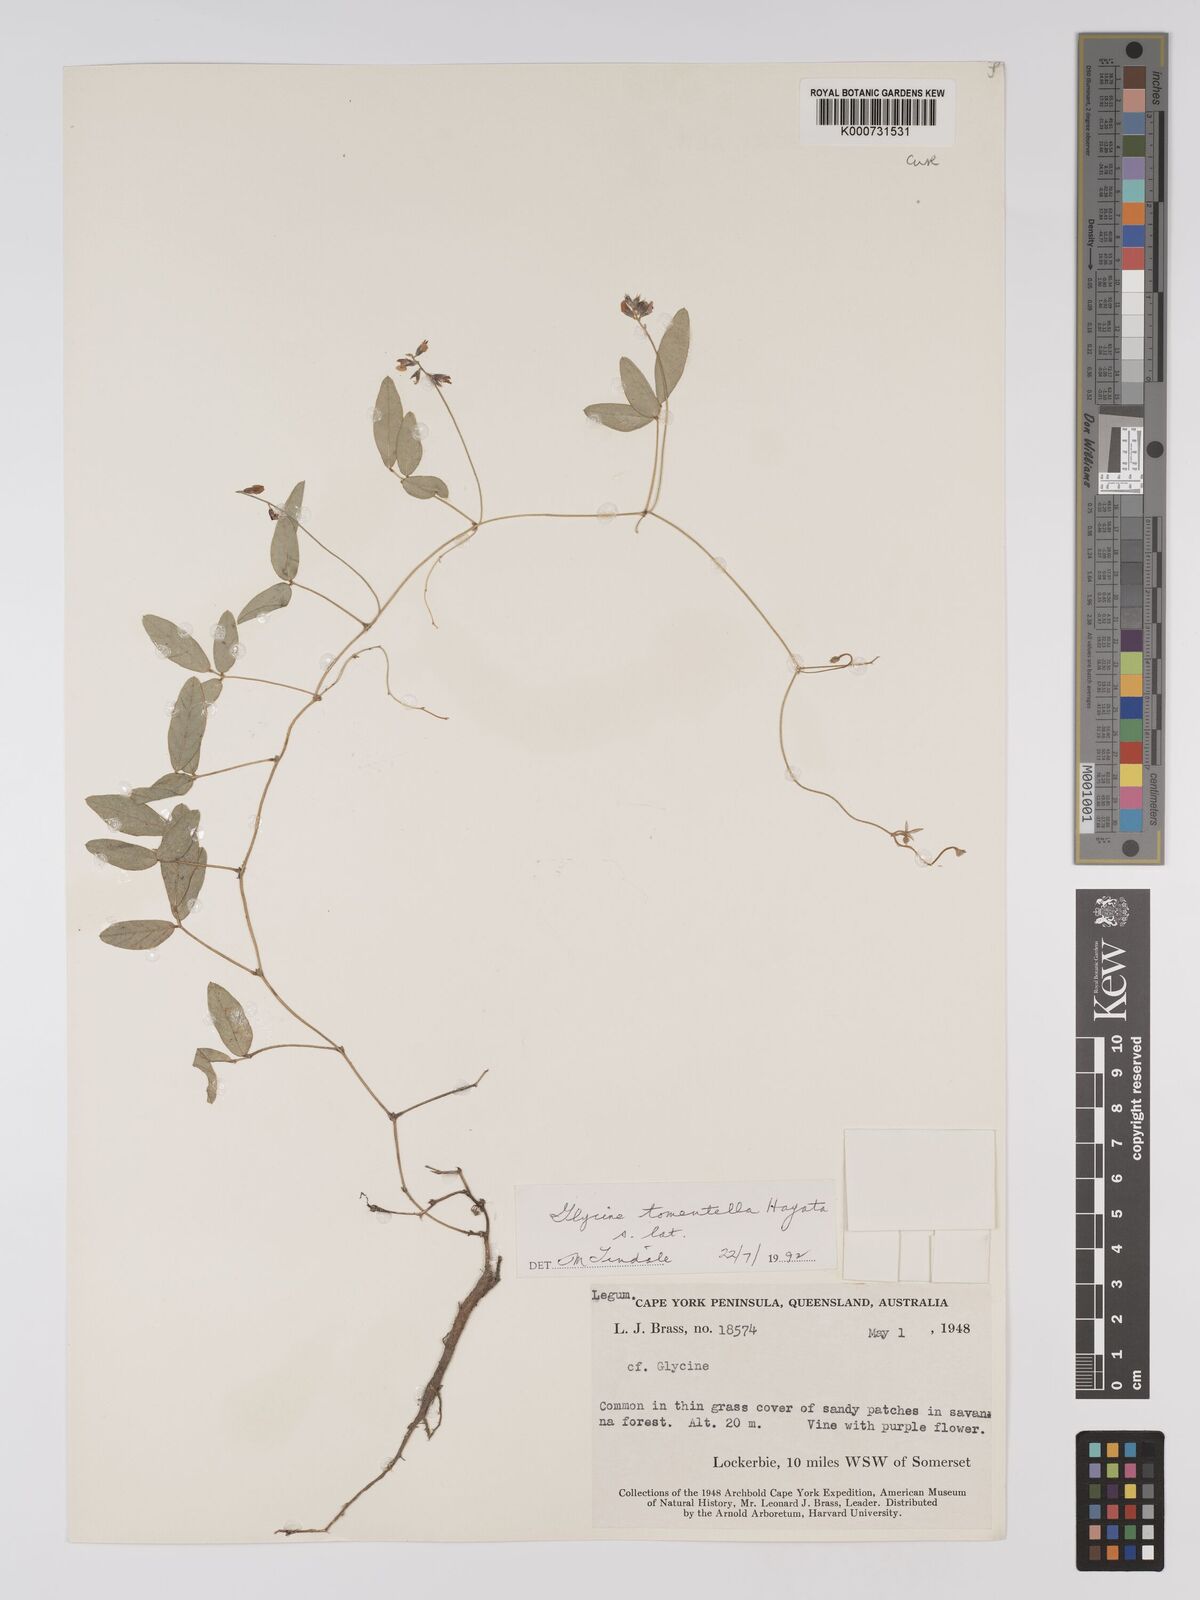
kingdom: Plantae
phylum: Tracheophyta
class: Magnoliopsida
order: Fabales
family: Fabaceae
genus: Glycine
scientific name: Glycine tomentella
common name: Hairy glycine
